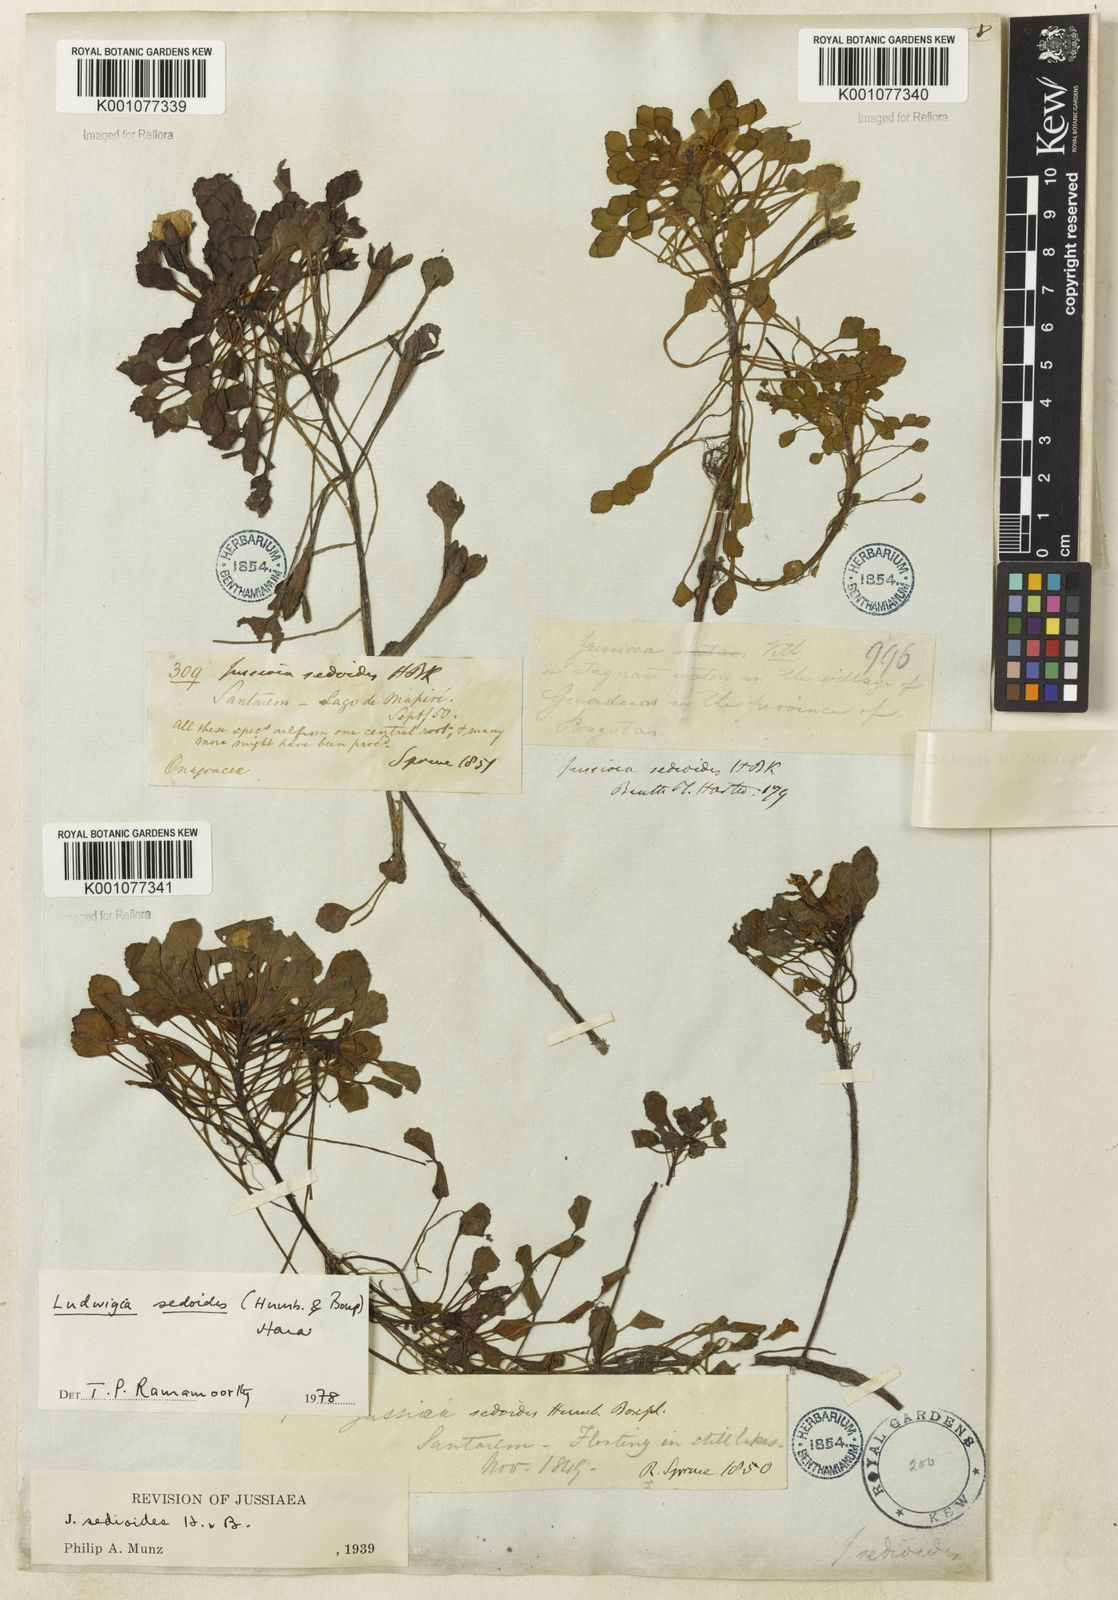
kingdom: Plantae
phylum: Tracheophyta
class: Magnoliopsida
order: Myrtales
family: Onagraceae
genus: Ludwigia
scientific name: Ludwigia sedoides
